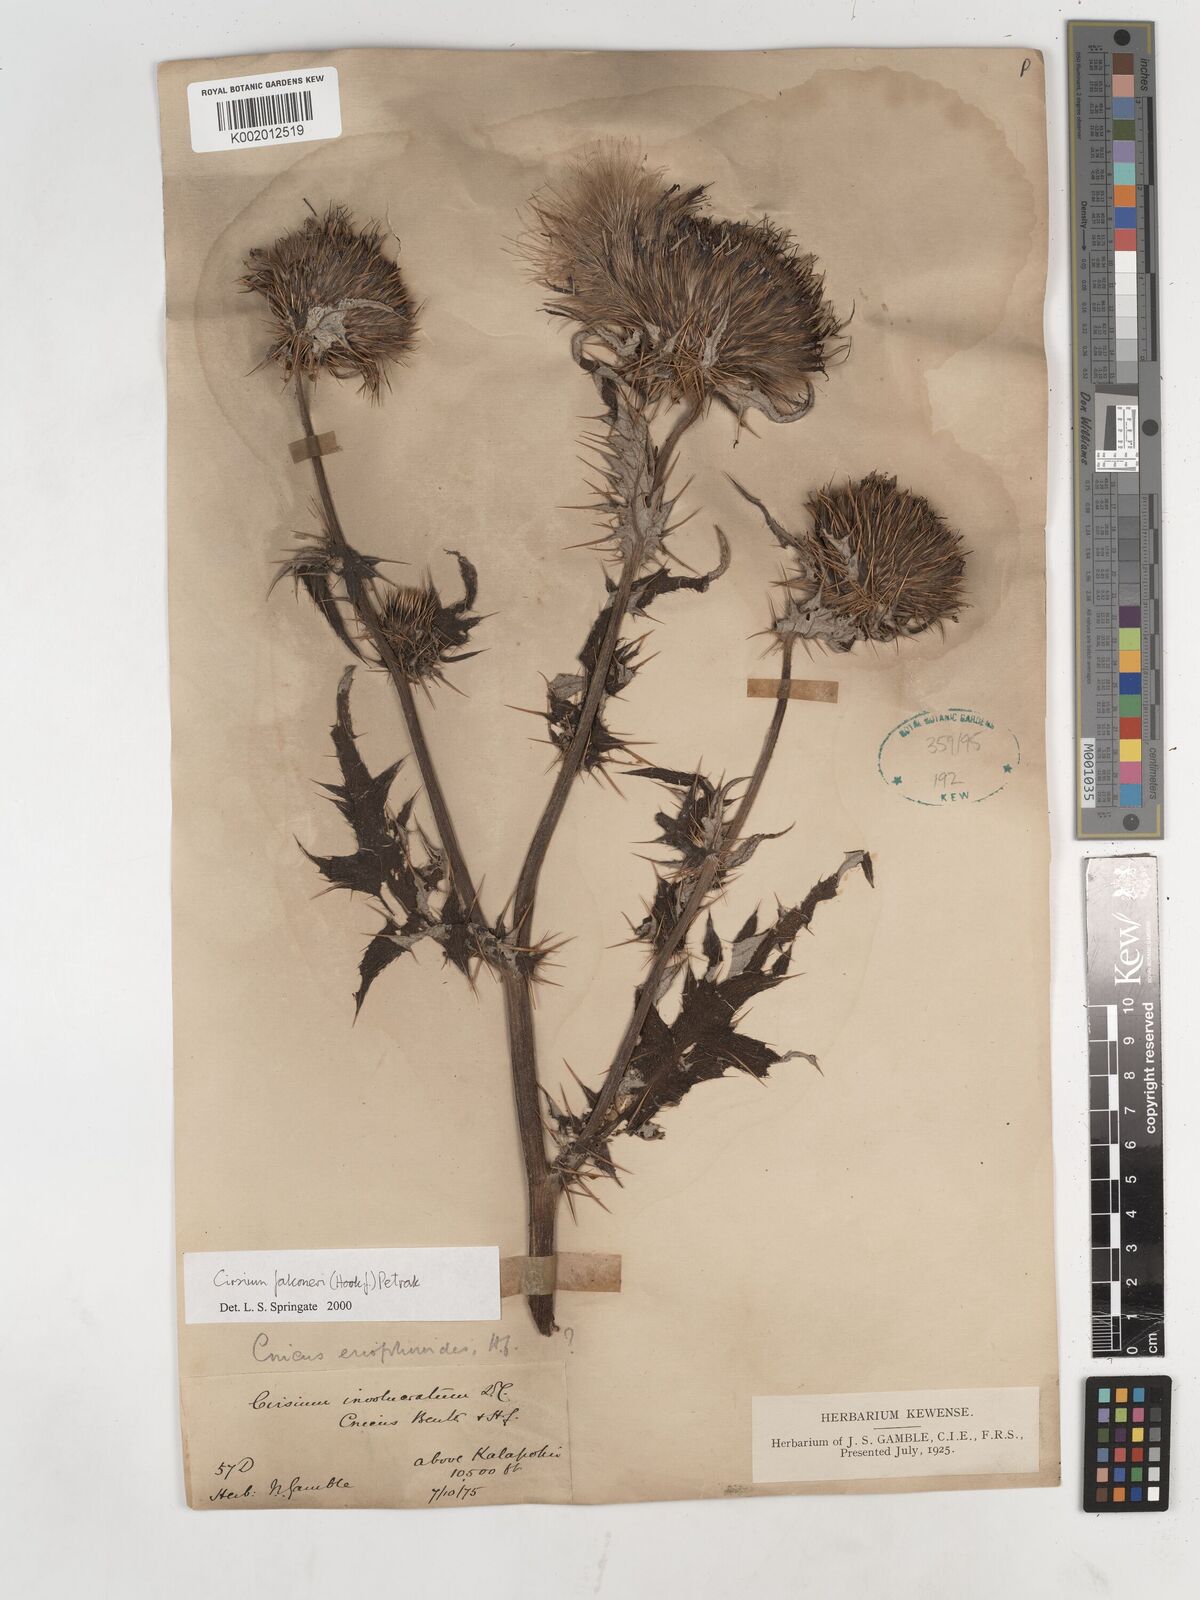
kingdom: Plantae
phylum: Tracheophyta
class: Magnoliopsida
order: Asterales
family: Asteraceae
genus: Cirsium
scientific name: Cirsium falconeri
